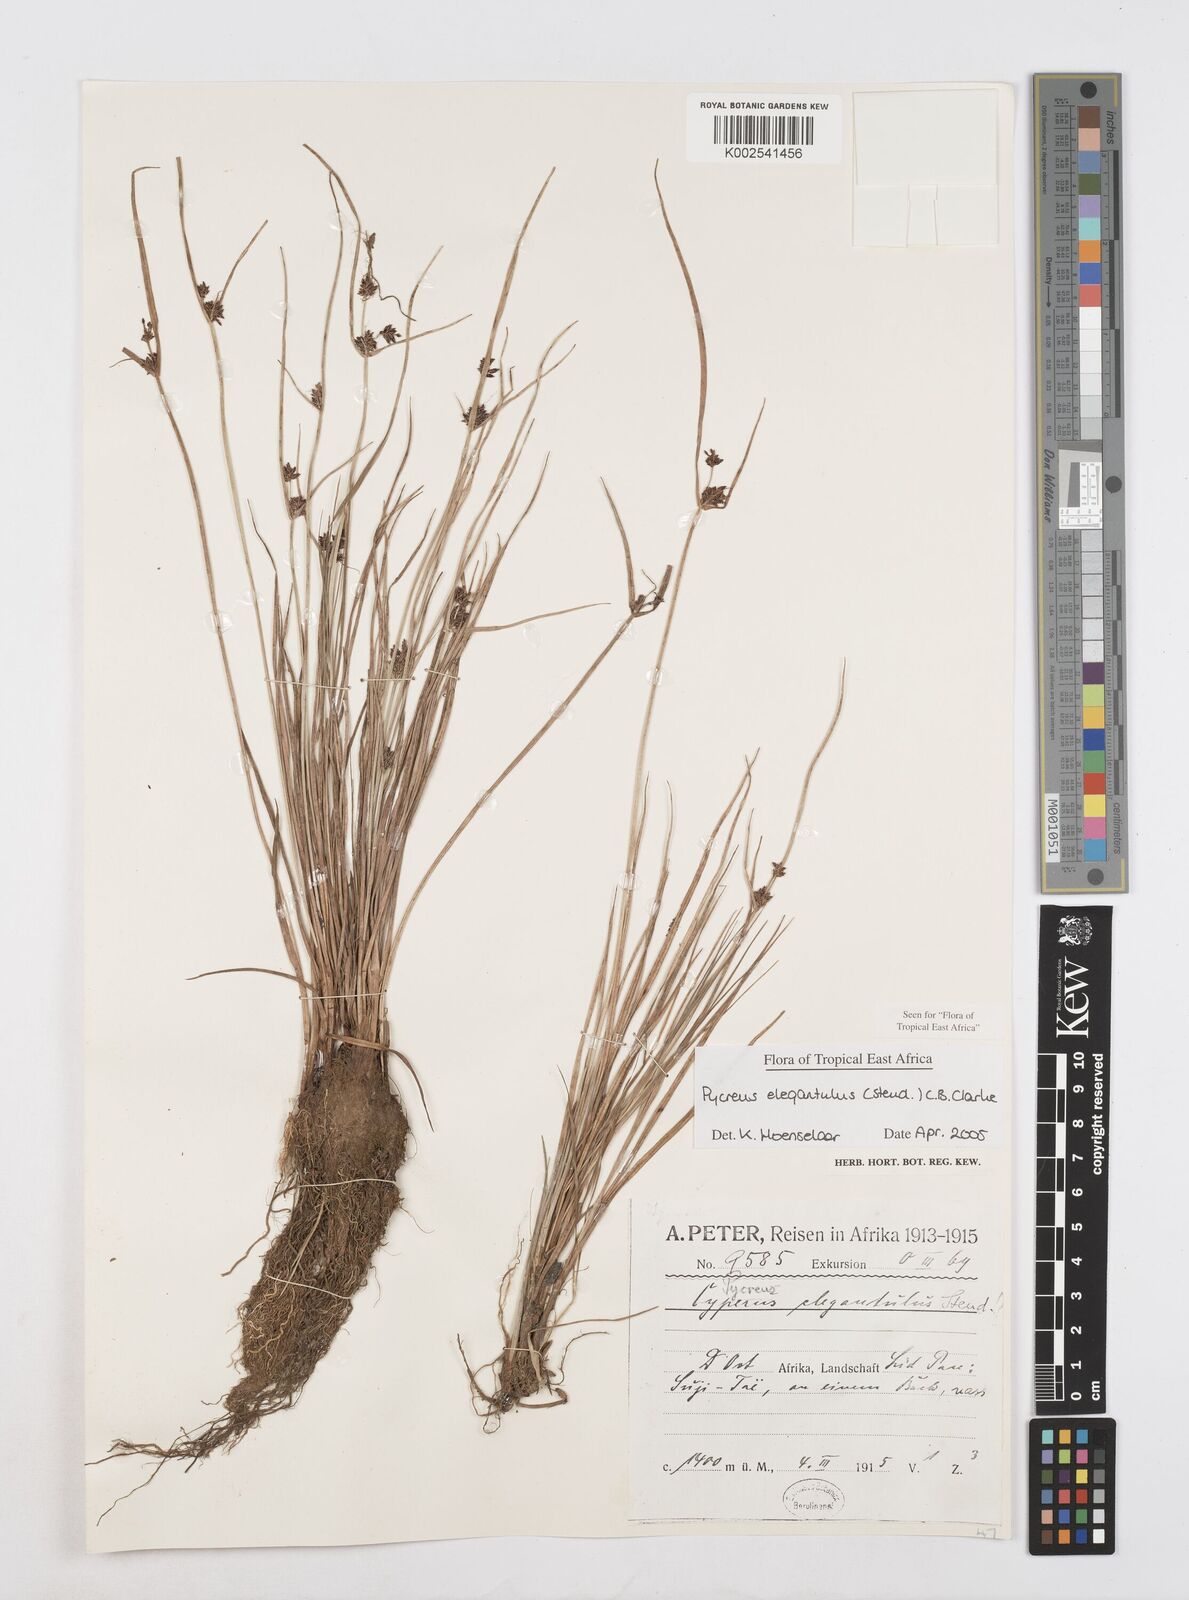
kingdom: Plantae
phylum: Tracheophyta
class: Liliopsida
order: Poales
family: Cyperaceae
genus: Cyperus
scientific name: Cyperus elegantulus
